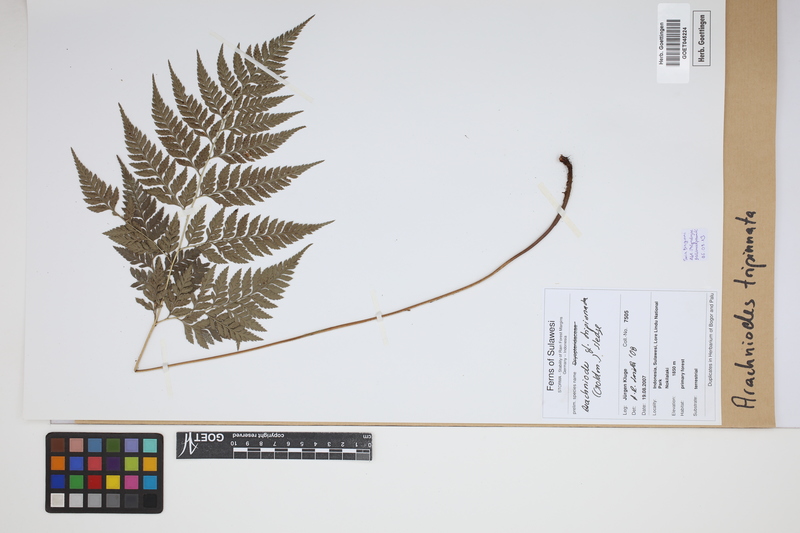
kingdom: Plantae
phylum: Tracheophyta
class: Polypodiopsida
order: Polypodiales
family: Dryopteridaceae
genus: Arachniodes
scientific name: Arachniodes tripinnata
